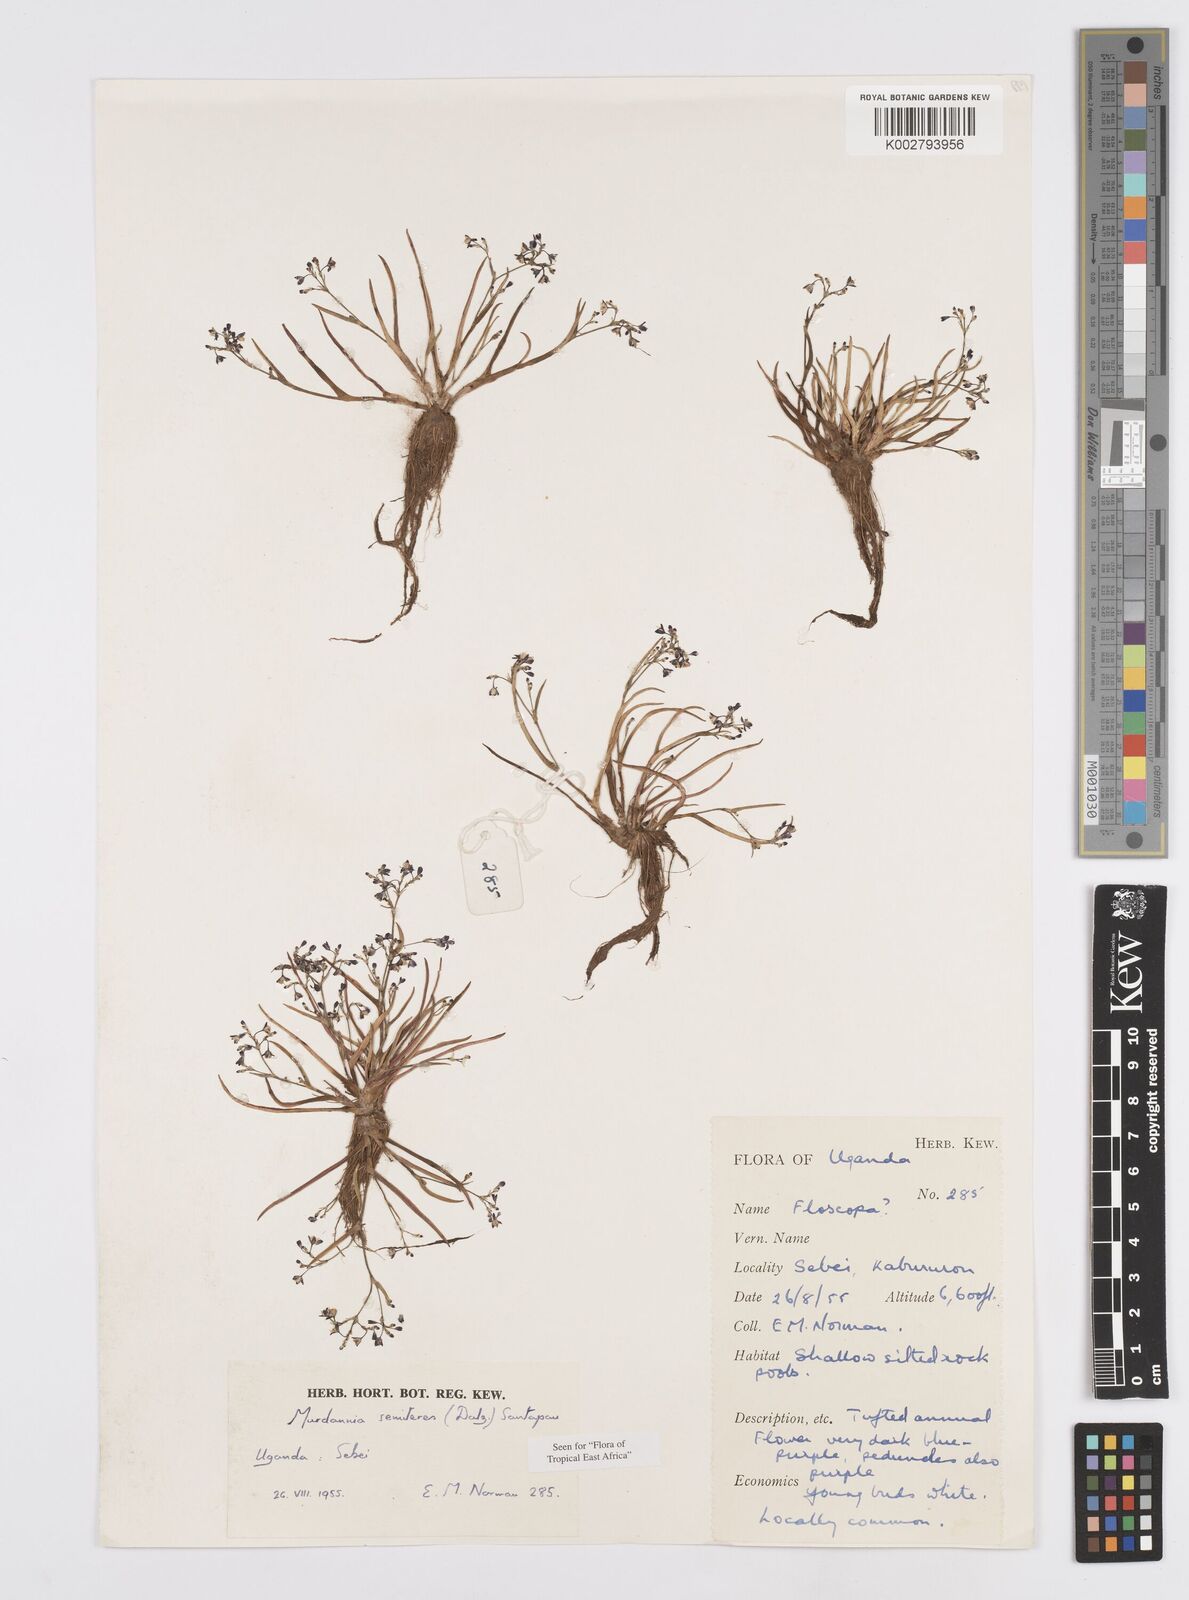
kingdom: Plantae
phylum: Tracheophyta
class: Liliopsida
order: Commelinales
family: Commelinaceae
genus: Murdannia
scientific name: Murdannia semiteres
